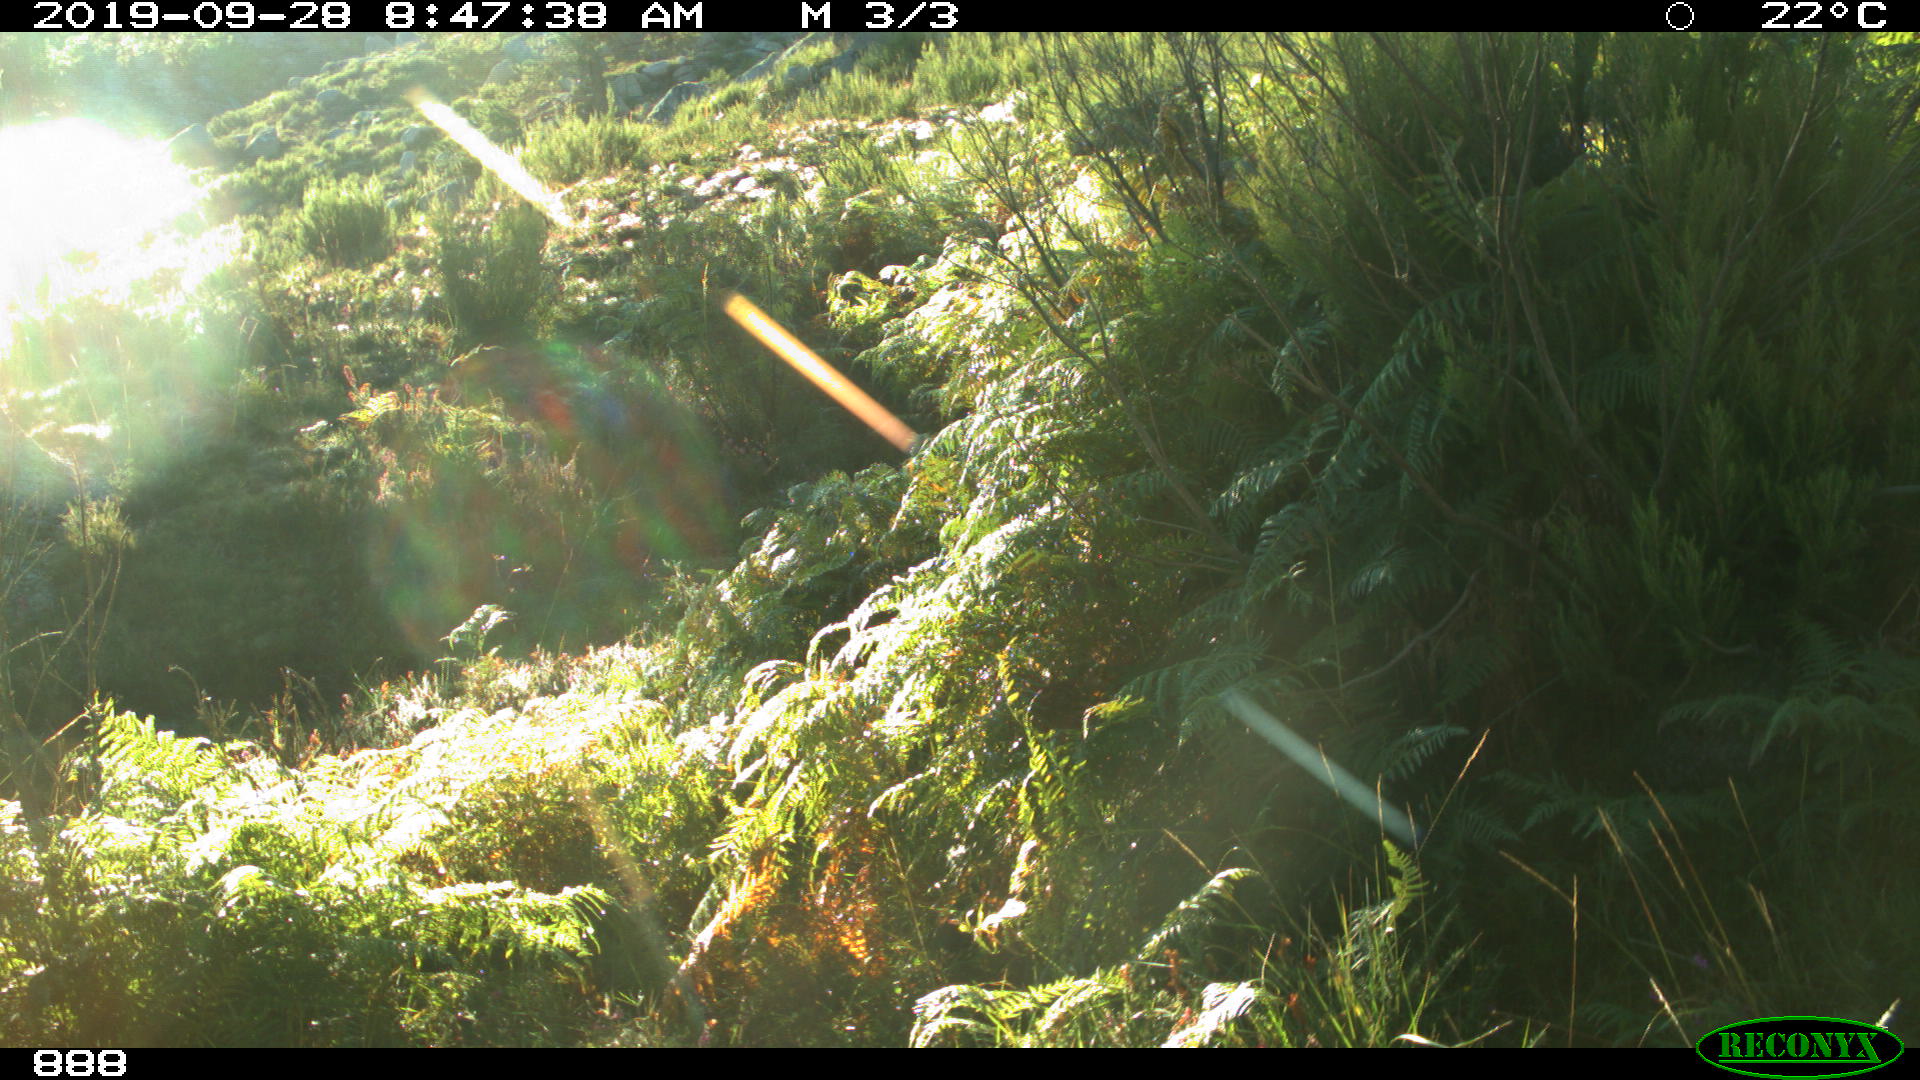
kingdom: Animalia
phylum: Chordata
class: Mammalia
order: Artiodactyla
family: Cervidae
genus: Capreolus
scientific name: Capreolus capreolus
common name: Western roe deer
